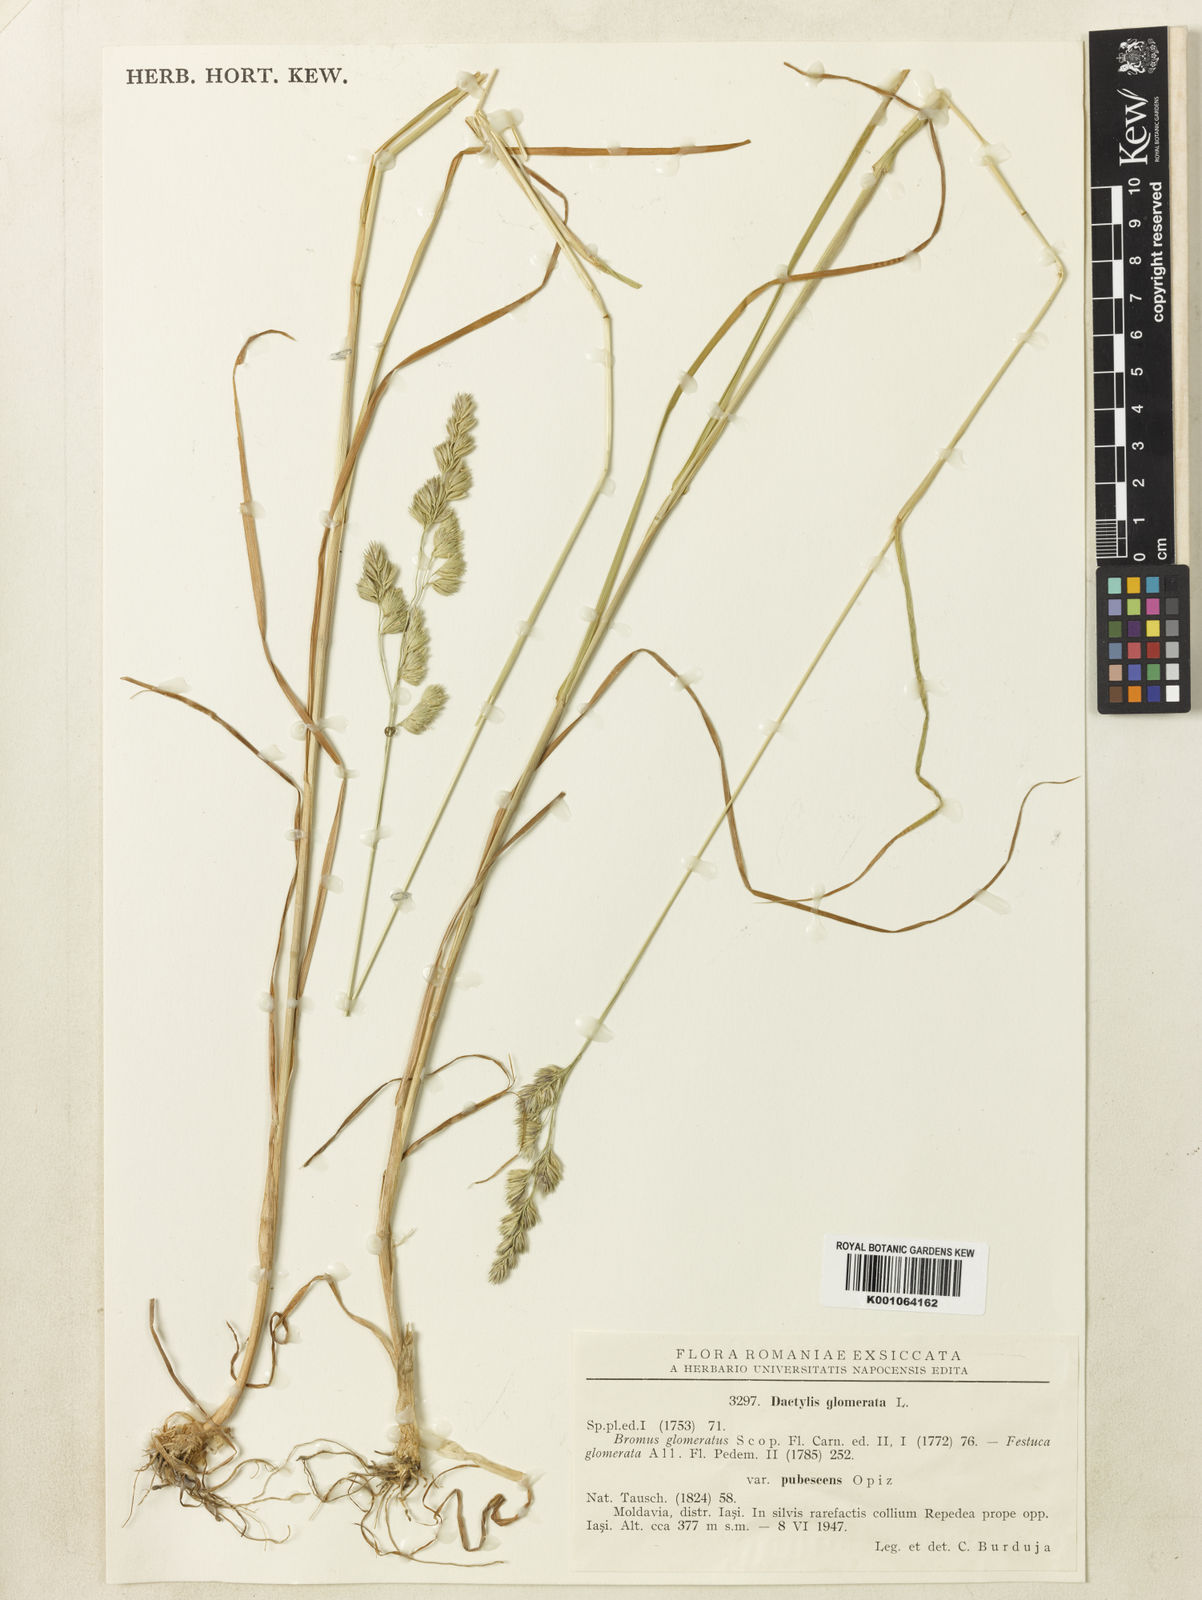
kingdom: Plantae
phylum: Tracheophyta
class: Liliopsida
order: Poales
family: Poaceae
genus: Dactylis
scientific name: Dactylis glomerata
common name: Orchardgrass
